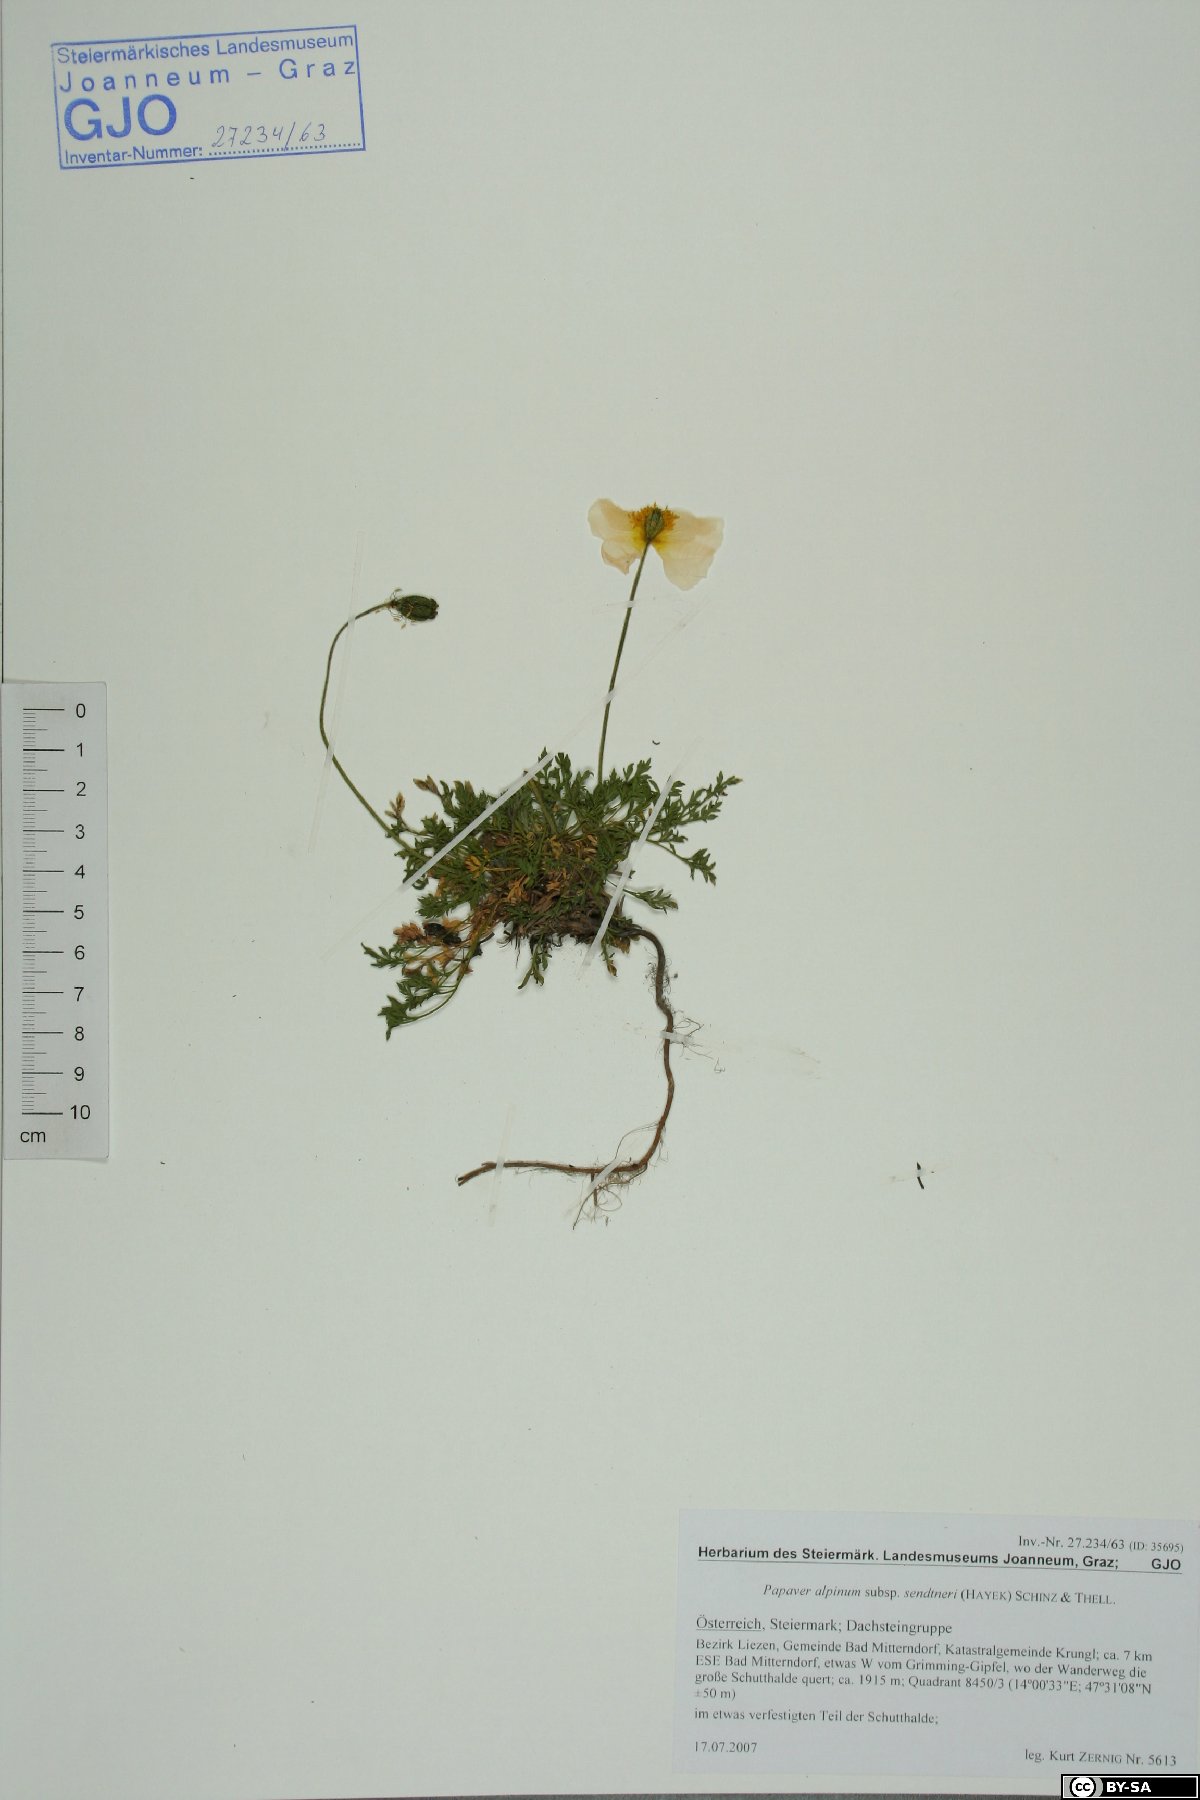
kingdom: Plantae
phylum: Tracheophyta
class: Magnoliopsida
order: Ranunculales
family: Papaveraceae
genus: Papaver
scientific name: Papaver alpinum
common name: Austrian poppy
